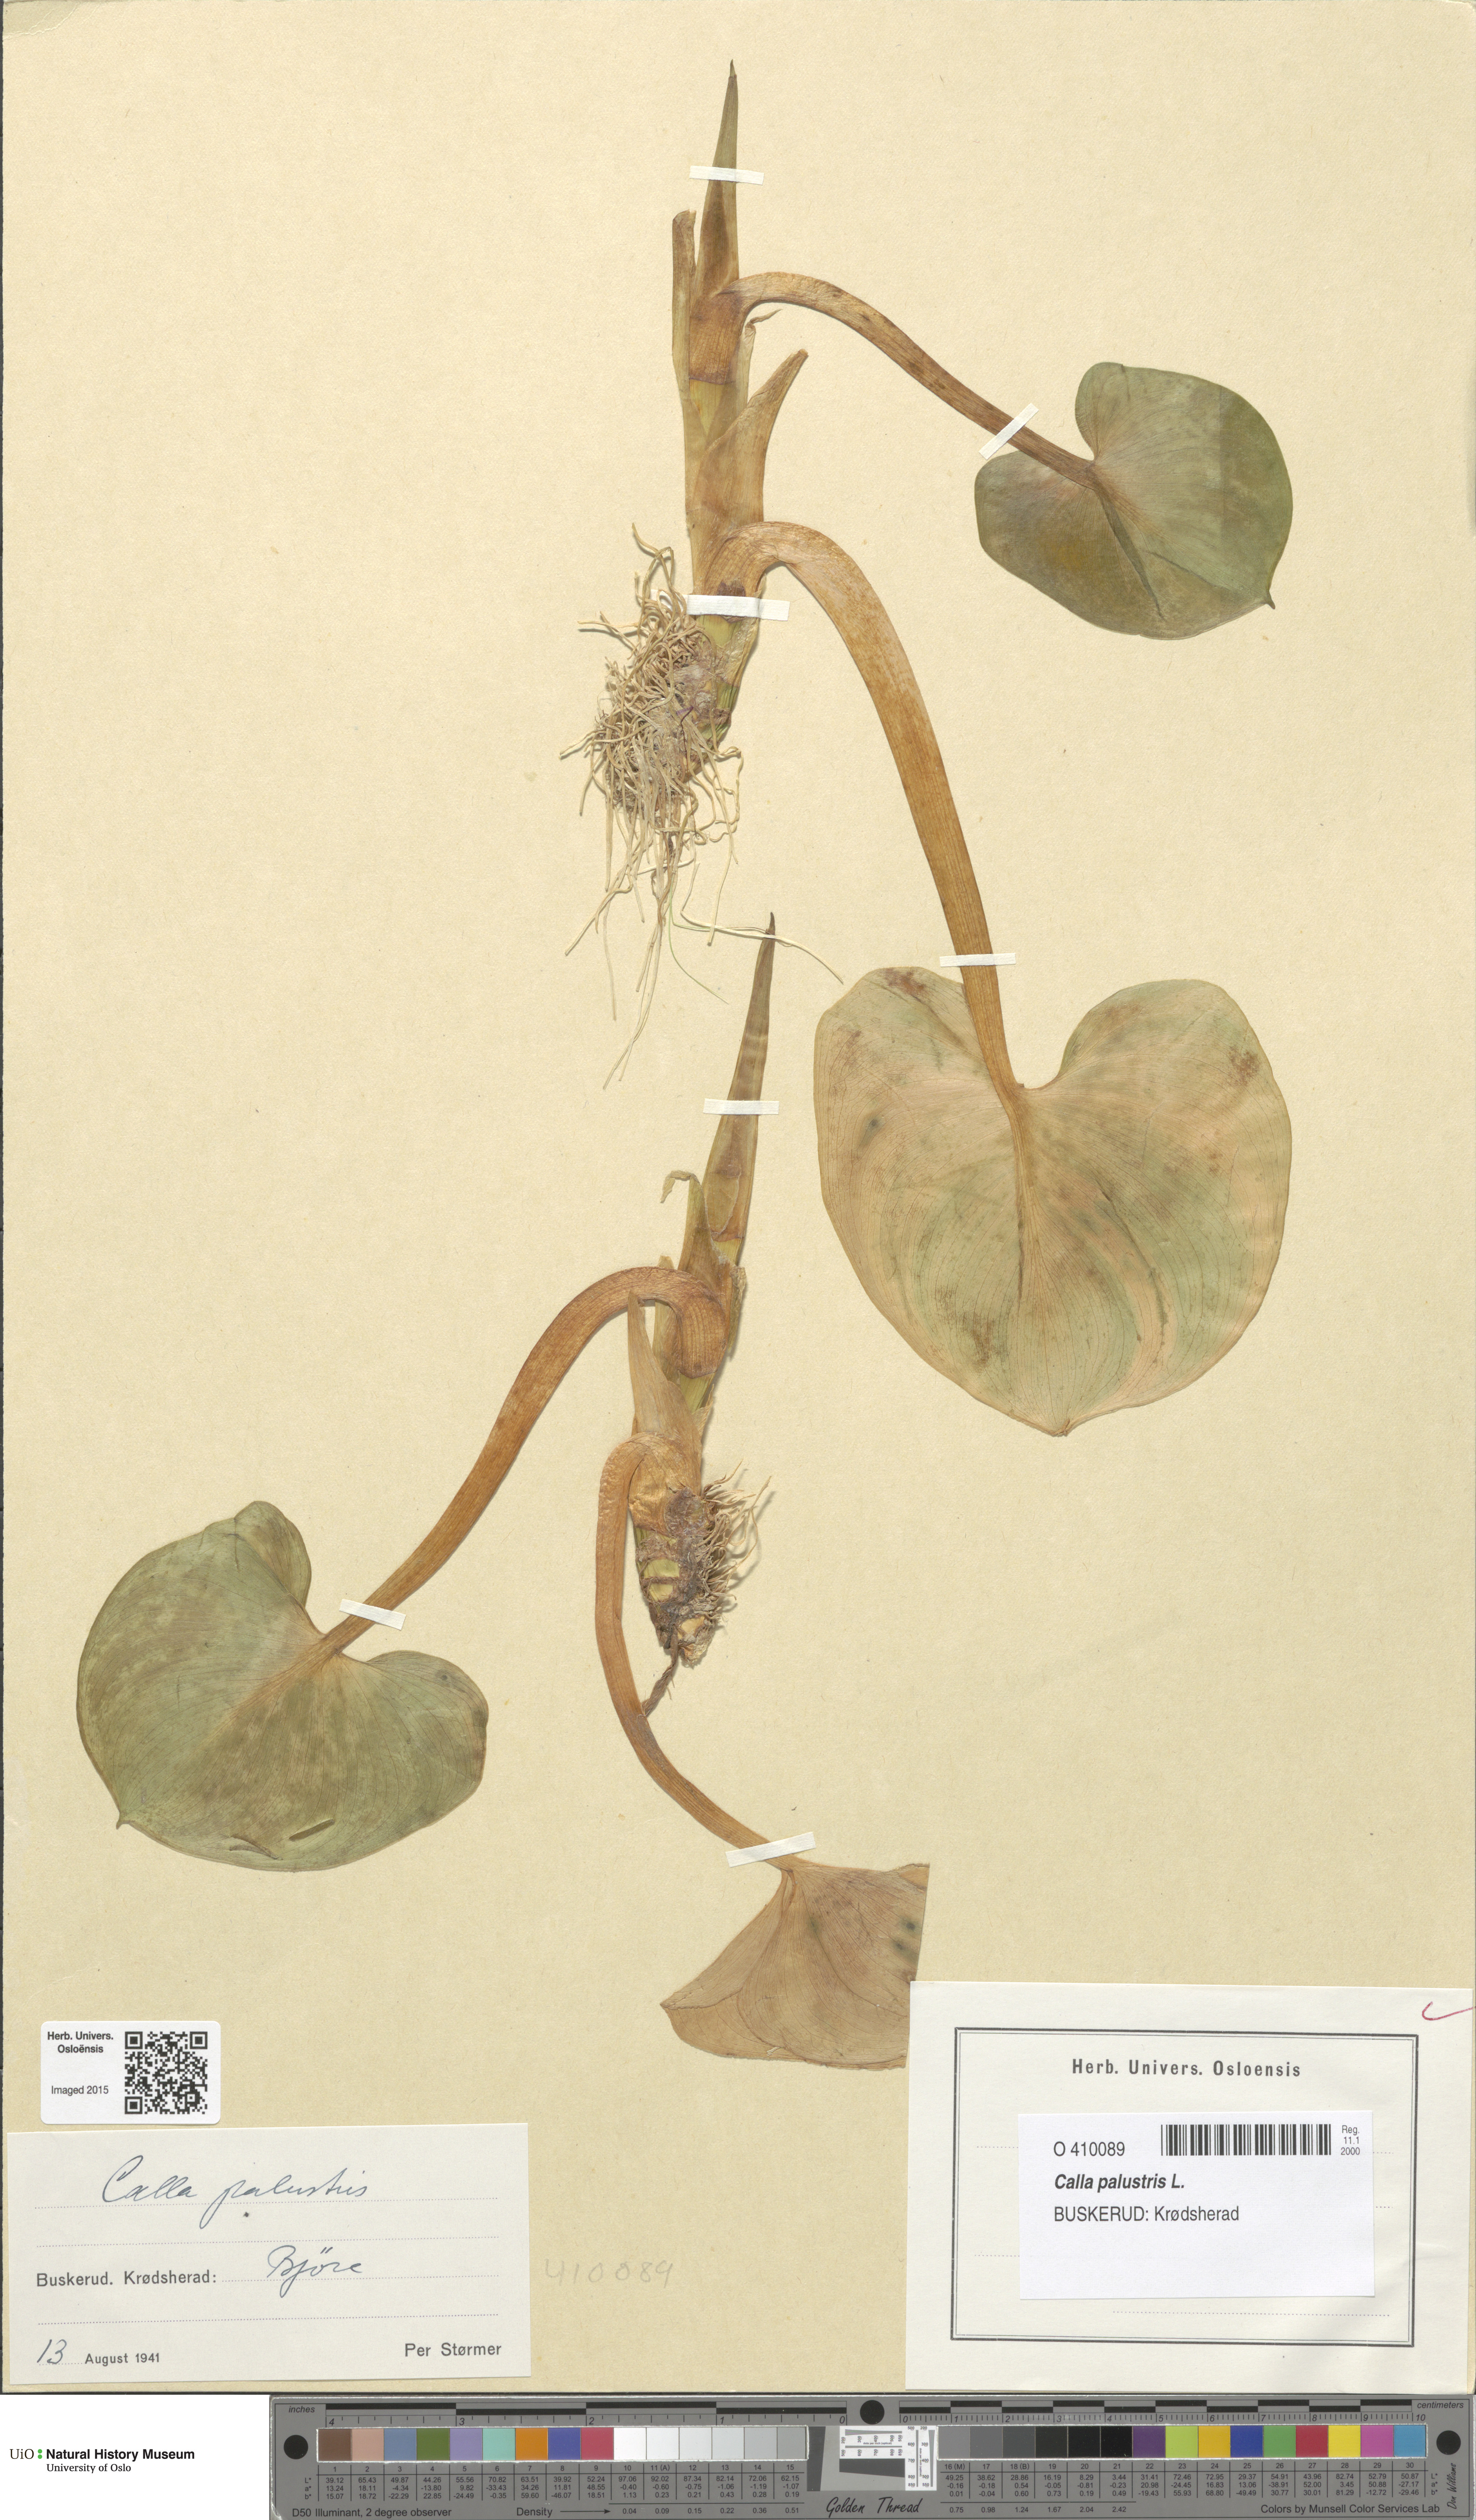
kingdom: Plantae
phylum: Tracheophyta
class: Liliopsida
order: Alismatales
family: Araceae
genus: Calla
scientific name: Calla palustris
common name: Bog arum
